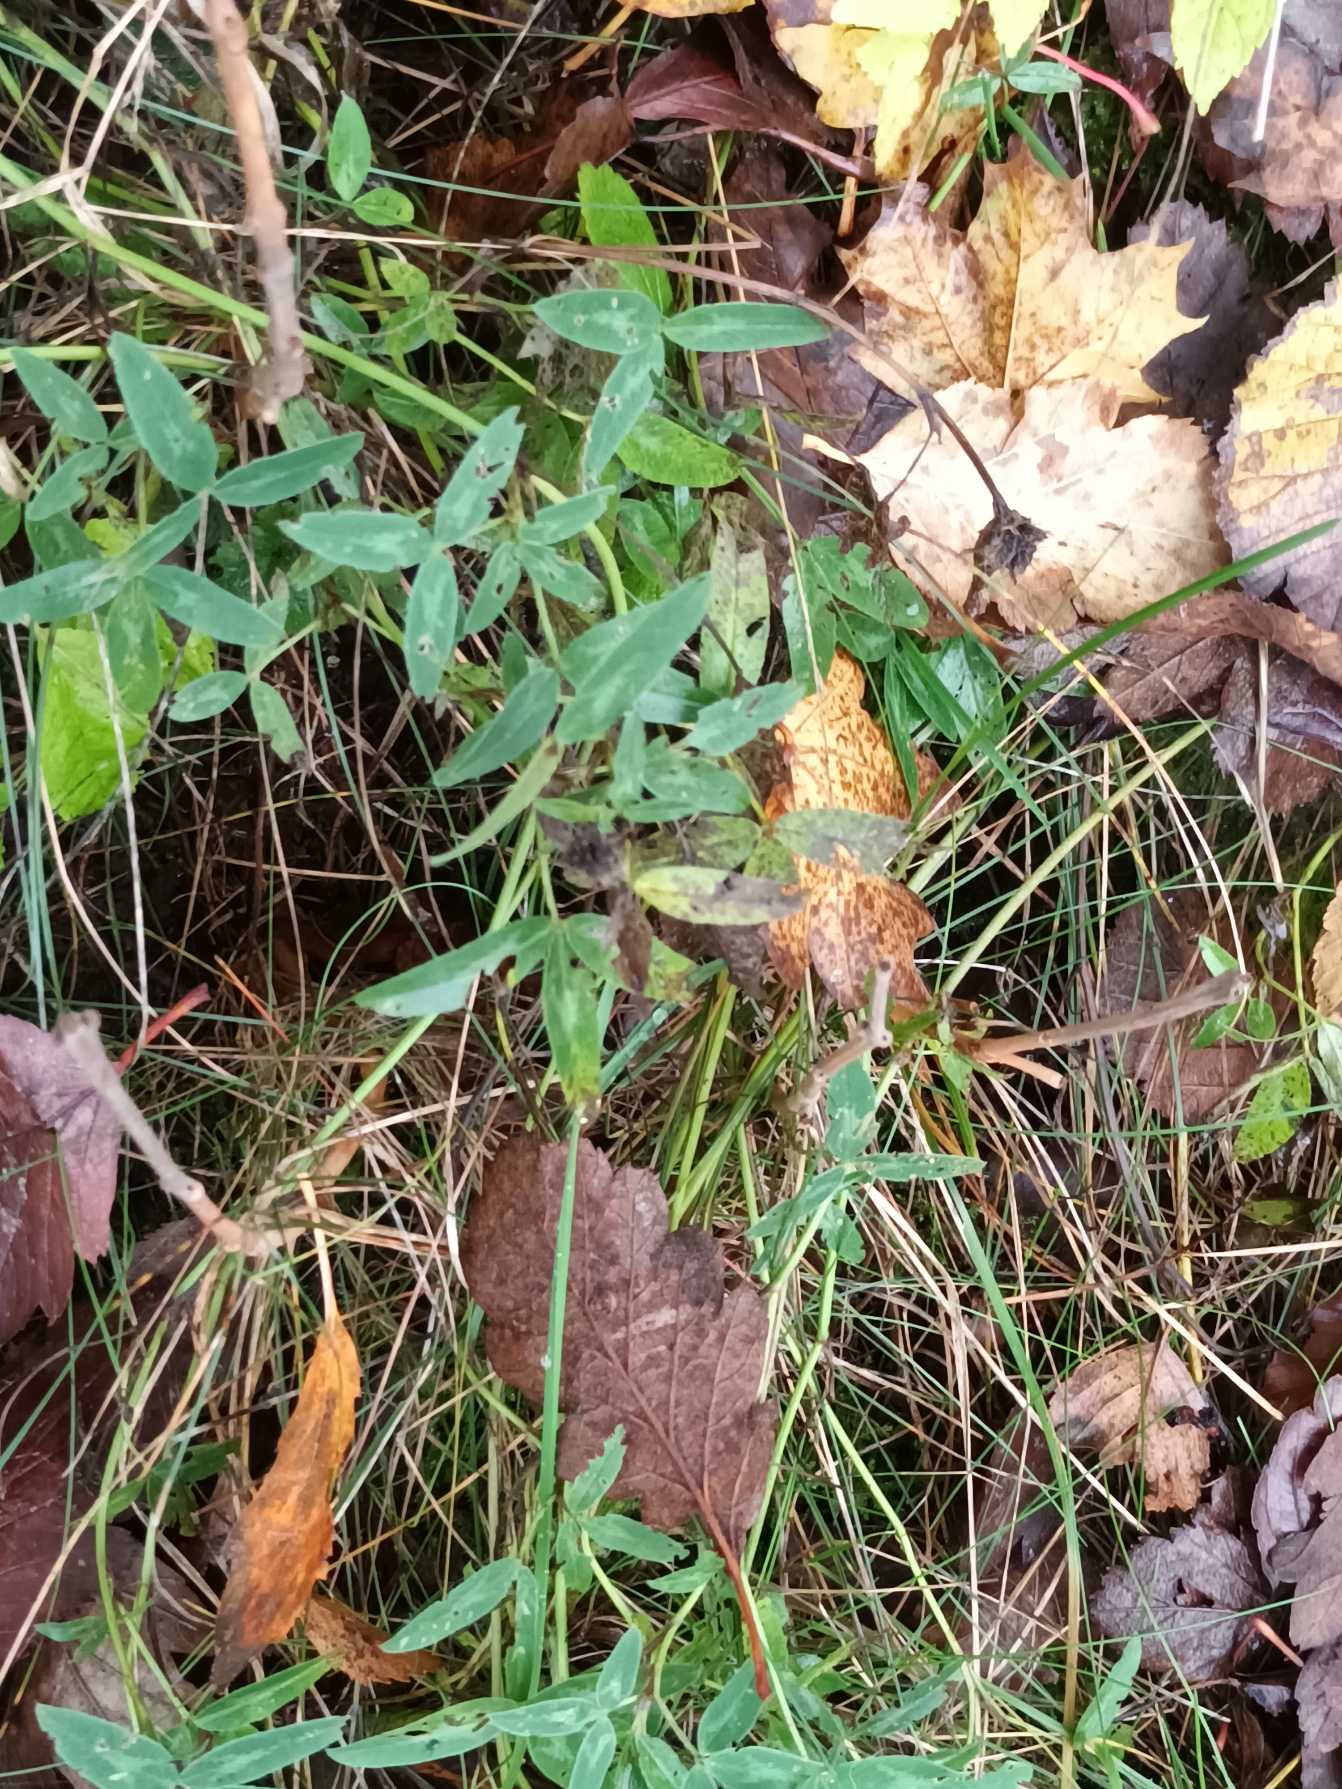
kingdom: Plantae
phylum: Tracheophyta
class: Magnoliopsida
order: Fabales
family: Fabaceae
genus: Trifolium
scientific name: Trifolium medium
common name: Bugtet kløver
